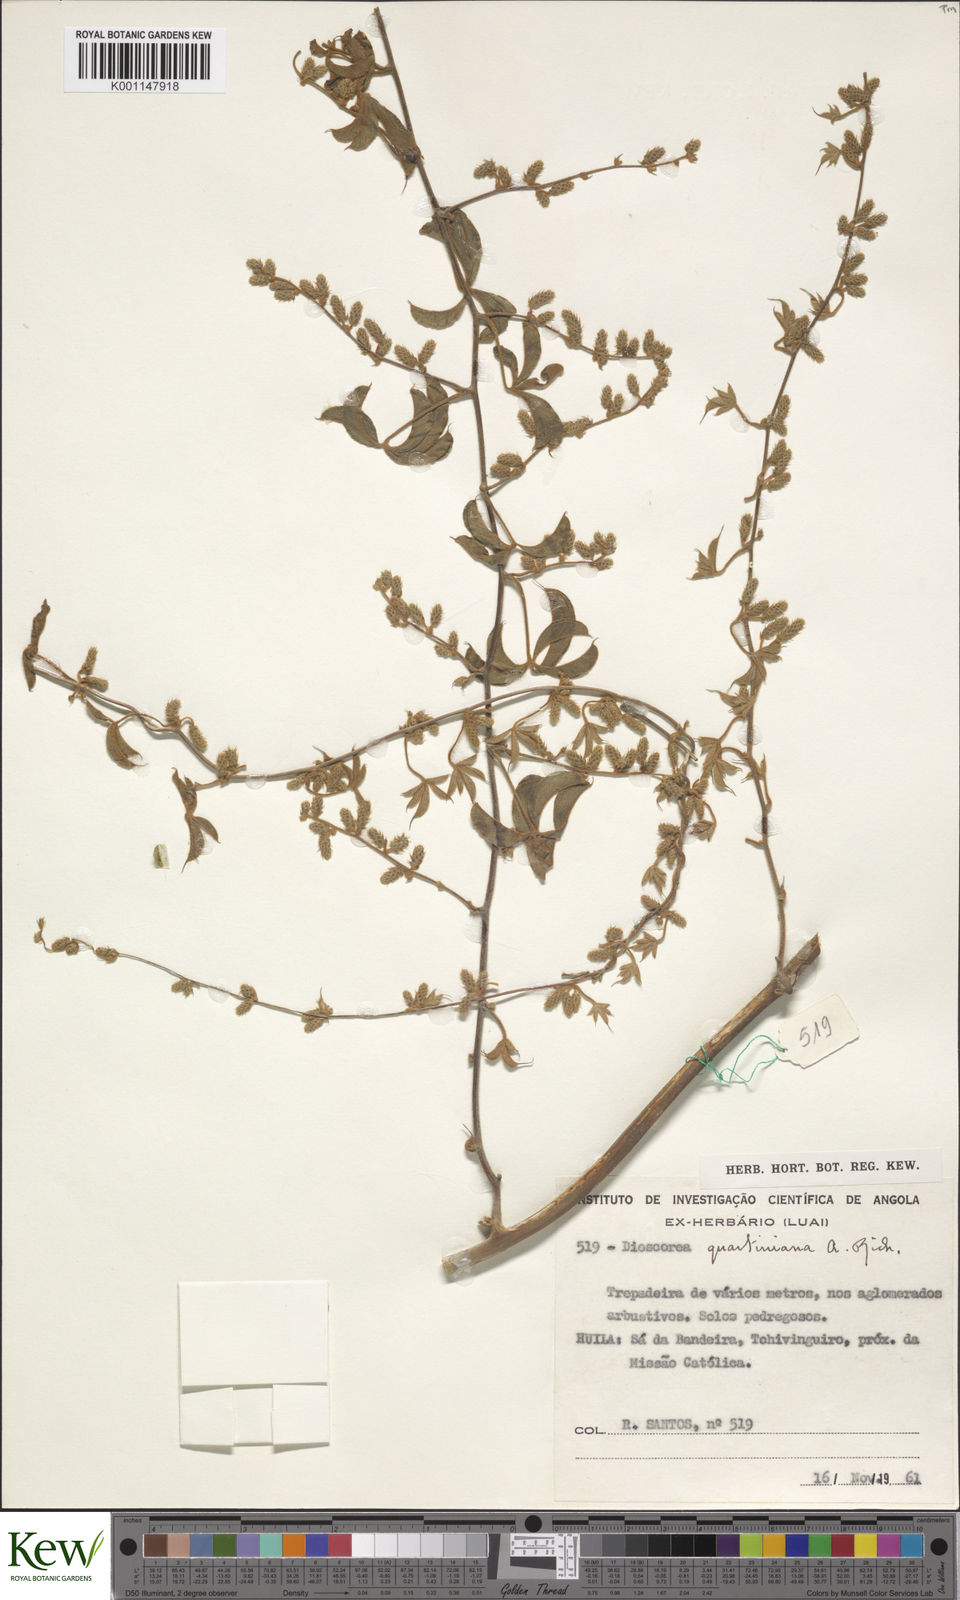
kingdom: Plantae
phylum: Tracheophyta
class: Liliopsida
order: Dioscoreales
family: Dioscoreaceae
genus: Dioscorea
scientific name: Dioscorea quartiniana
